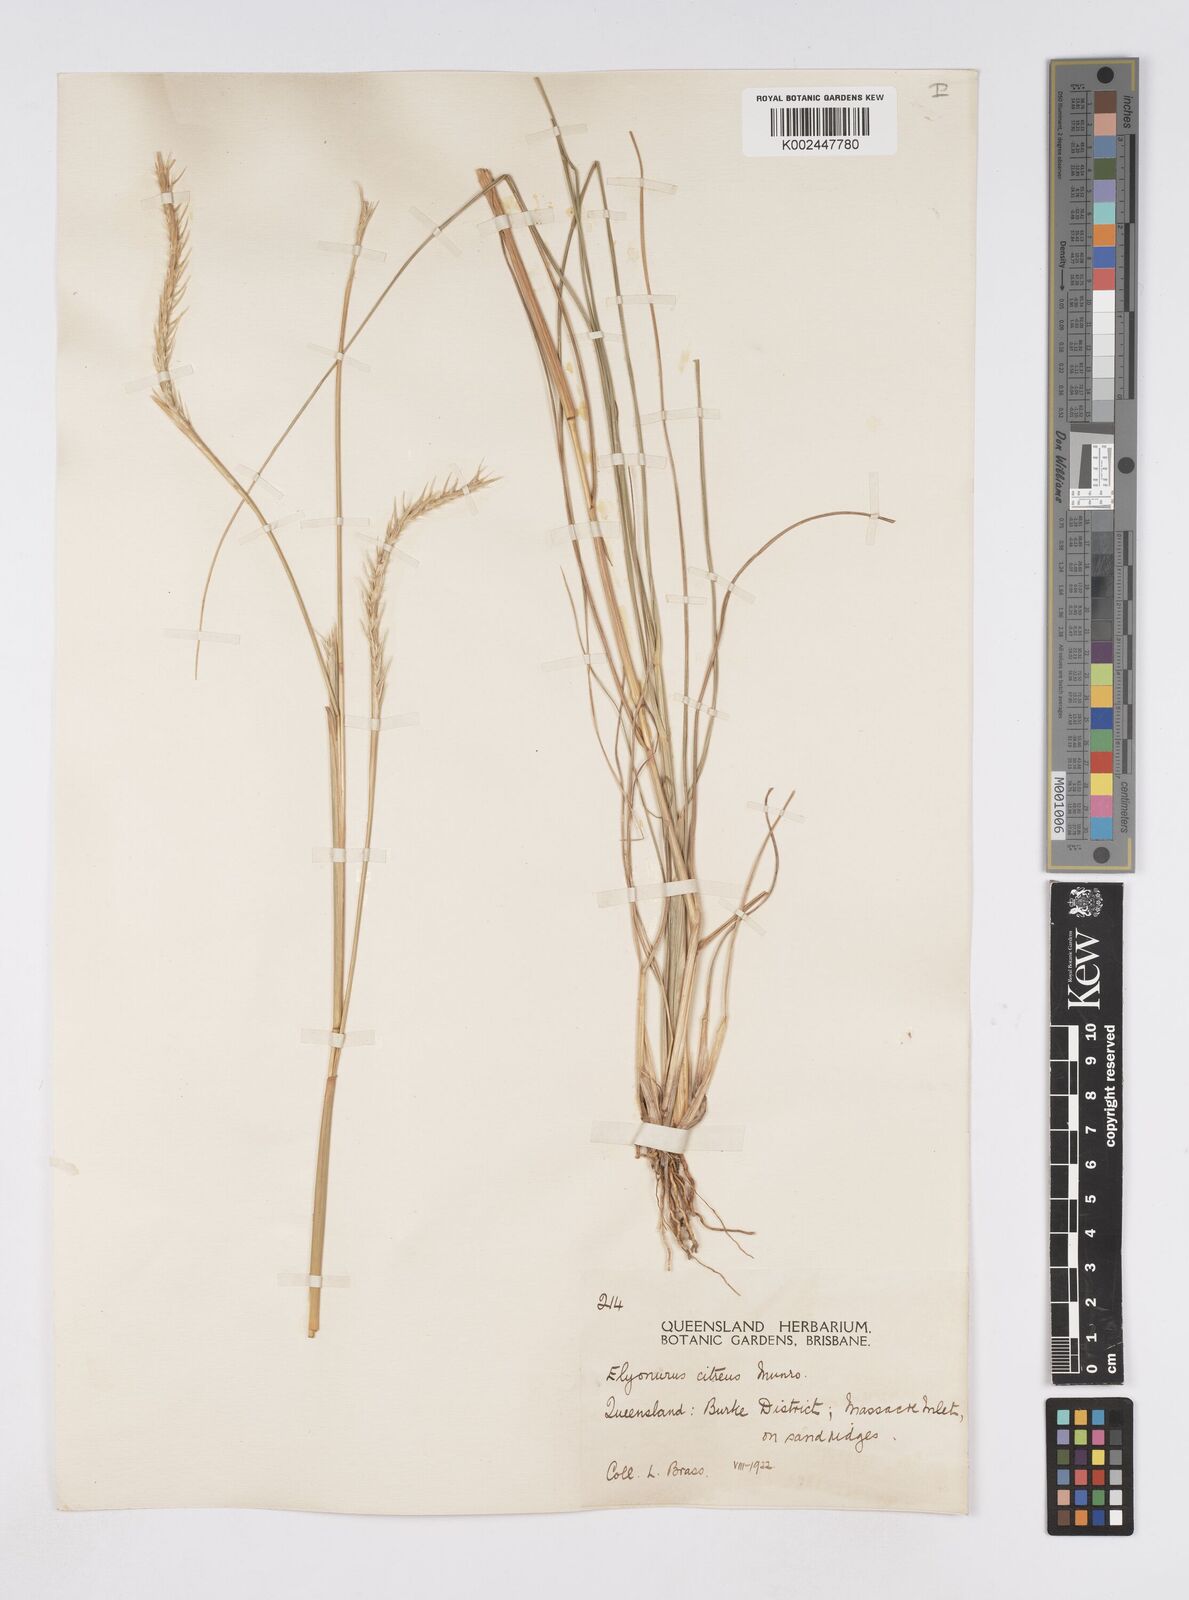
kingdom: Plantae
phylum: Tracheophyta
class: Liliopsida
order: Poales
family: Poaceae
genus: Elionurus
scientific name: Elionurus citreus
